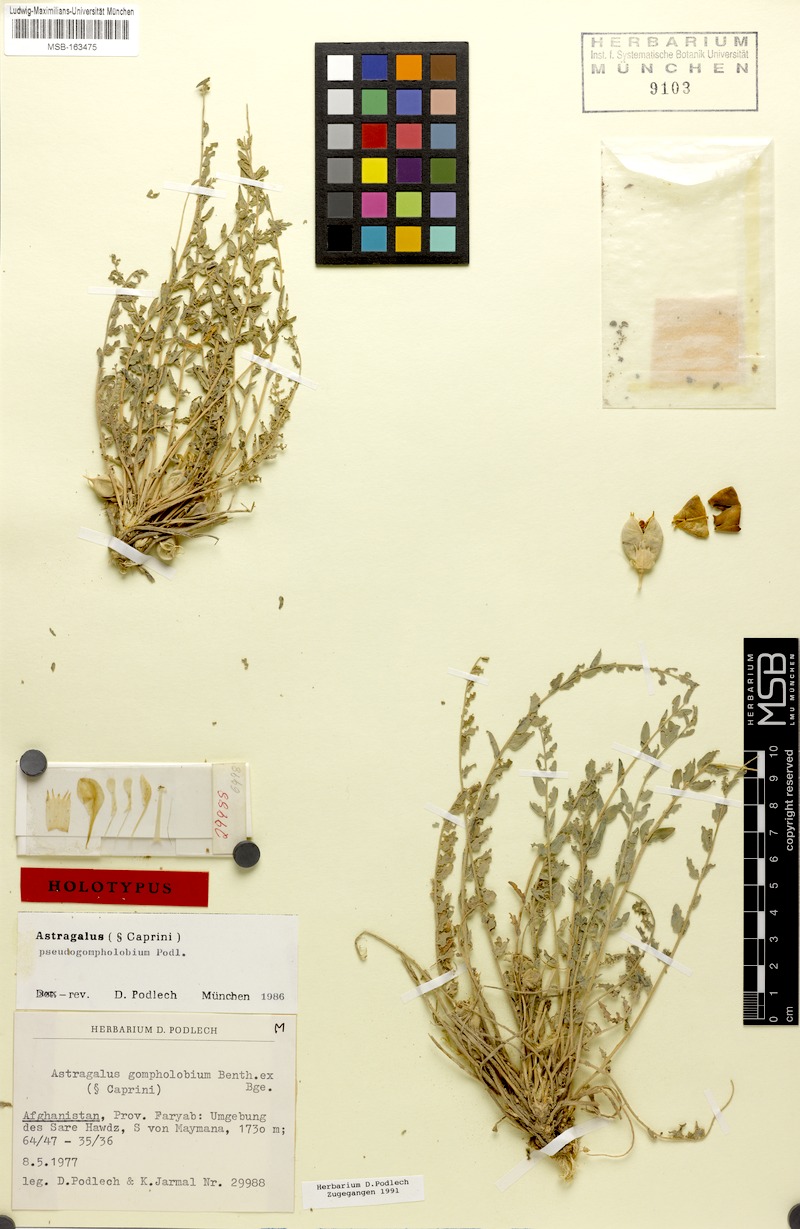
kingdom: Plantae
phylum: Tracheophyta
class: Magnoliopsida
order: Fabales
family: Fabaceae
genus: Astragalus
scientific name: Astragalus pseudogompholobium
